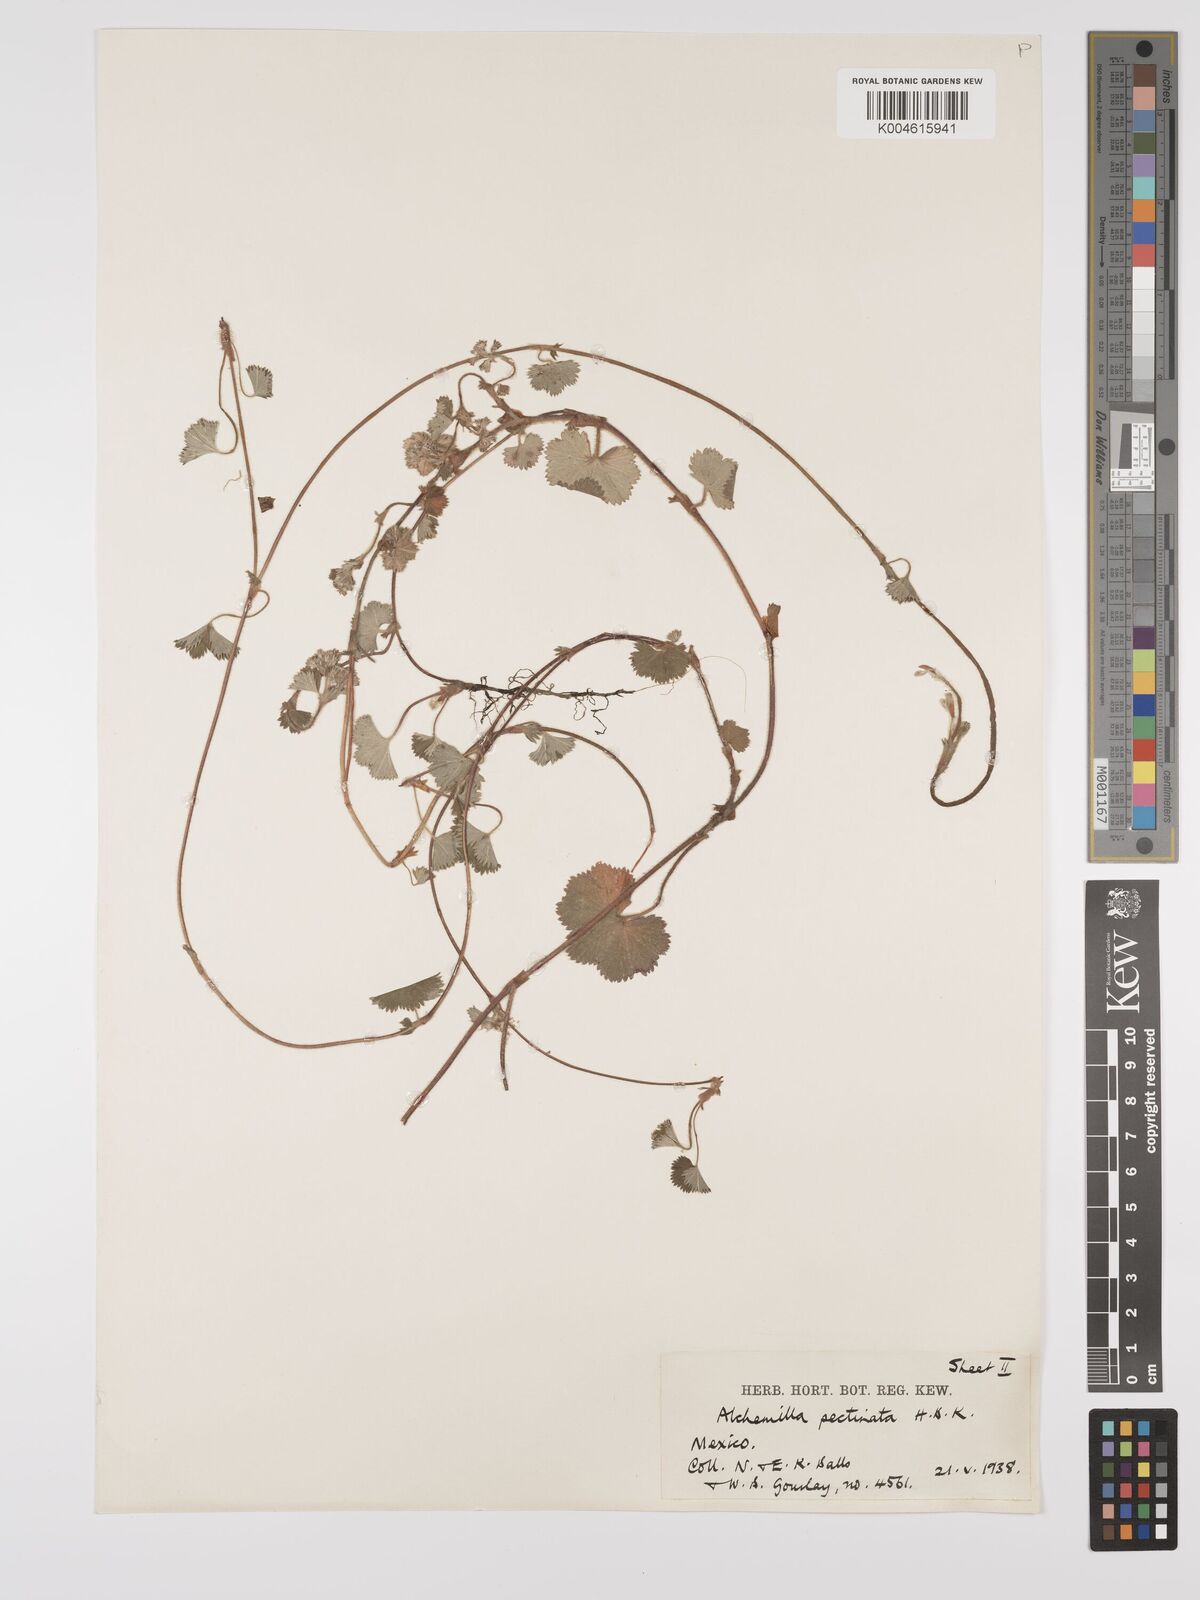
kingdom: Plantae
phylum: Tracheophyta
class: Magnoliopsida
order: Rosales
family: Rosaceae
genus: Lachemilla
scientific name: Lachemilla pectinata
